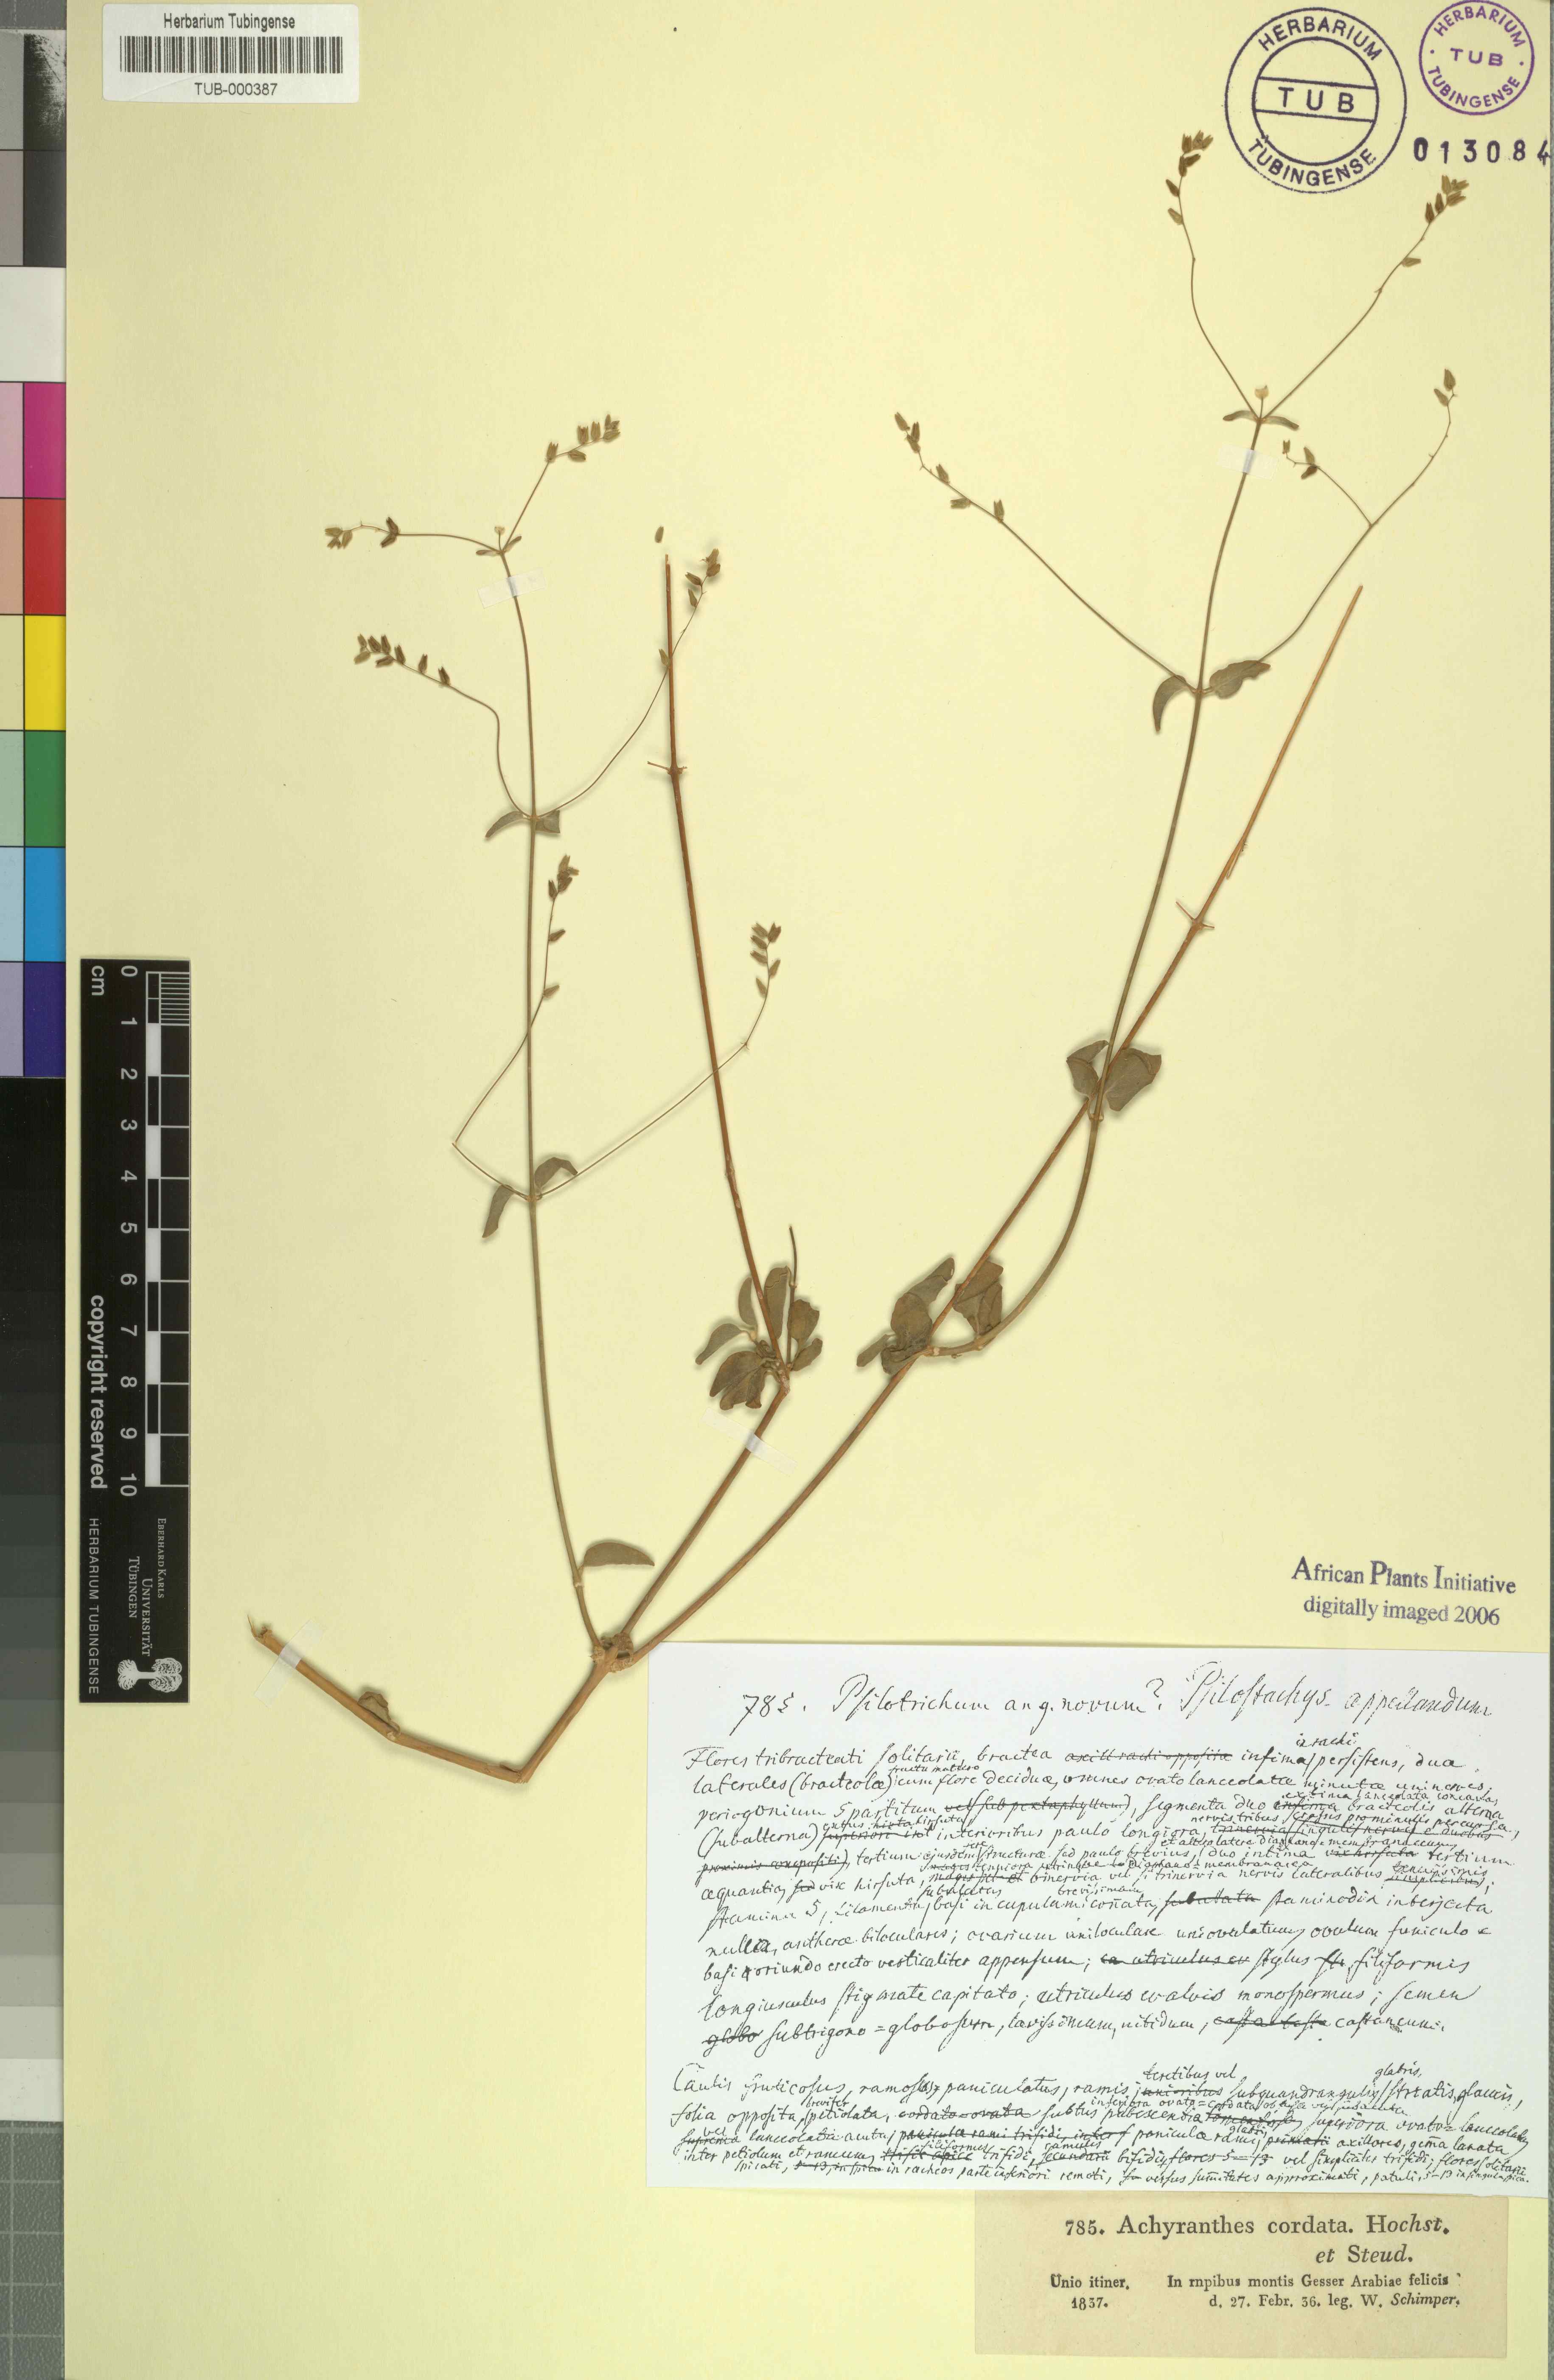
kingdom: Plantae
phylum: Tracheophyta
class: Magnoliopsida
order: Caryophyllales
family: Amaranthaceae
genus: Psilotrichum
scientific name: Psilotrichum gnaphalobryum
